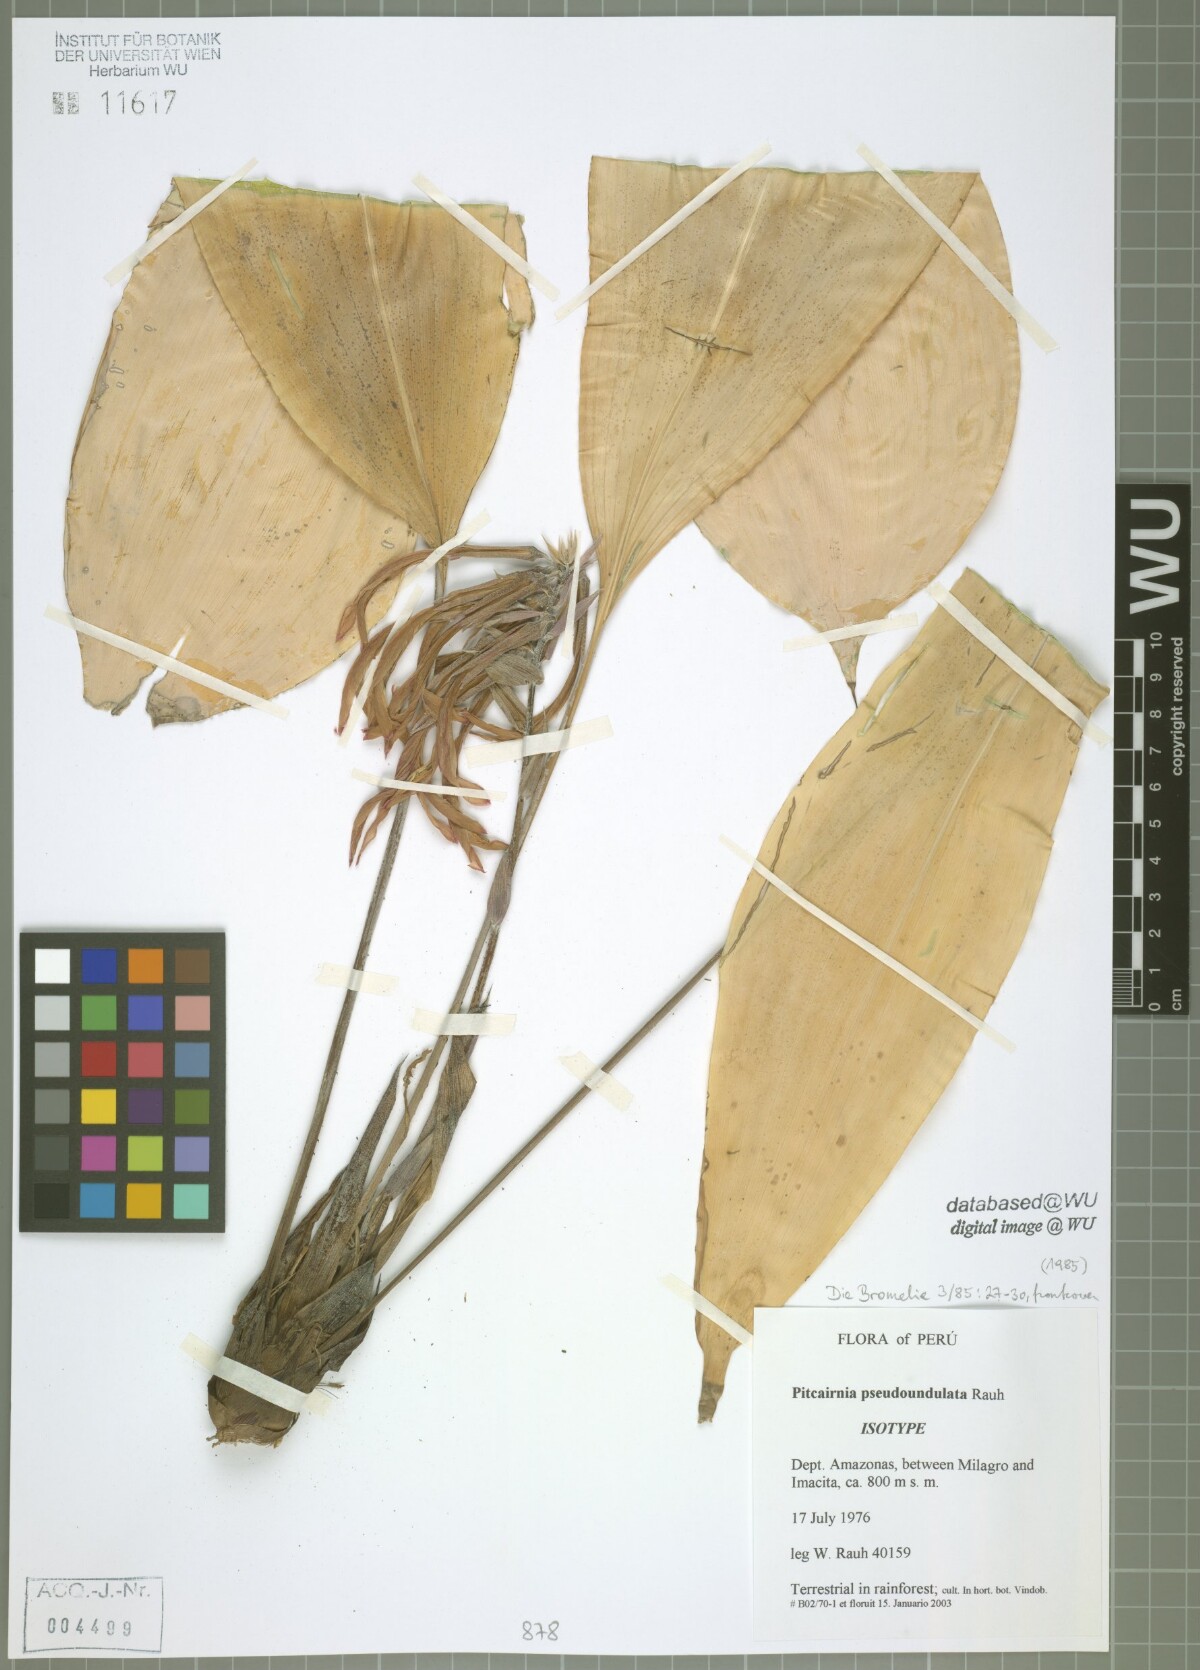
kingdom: Plantae
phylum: Tracheophyta
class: Liliopsida
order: Poales
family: Bromeliaceae
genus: Pitcairnia
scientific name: Pitcairnia pseudoundulata
